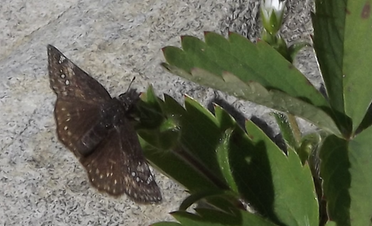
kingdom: Animalia
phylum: Arthropoda
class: Insecta
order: Lepidoptera
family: Hesperiidae
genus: Erynnis
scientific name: Erynnis afranius
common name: Afranius Duskywing
